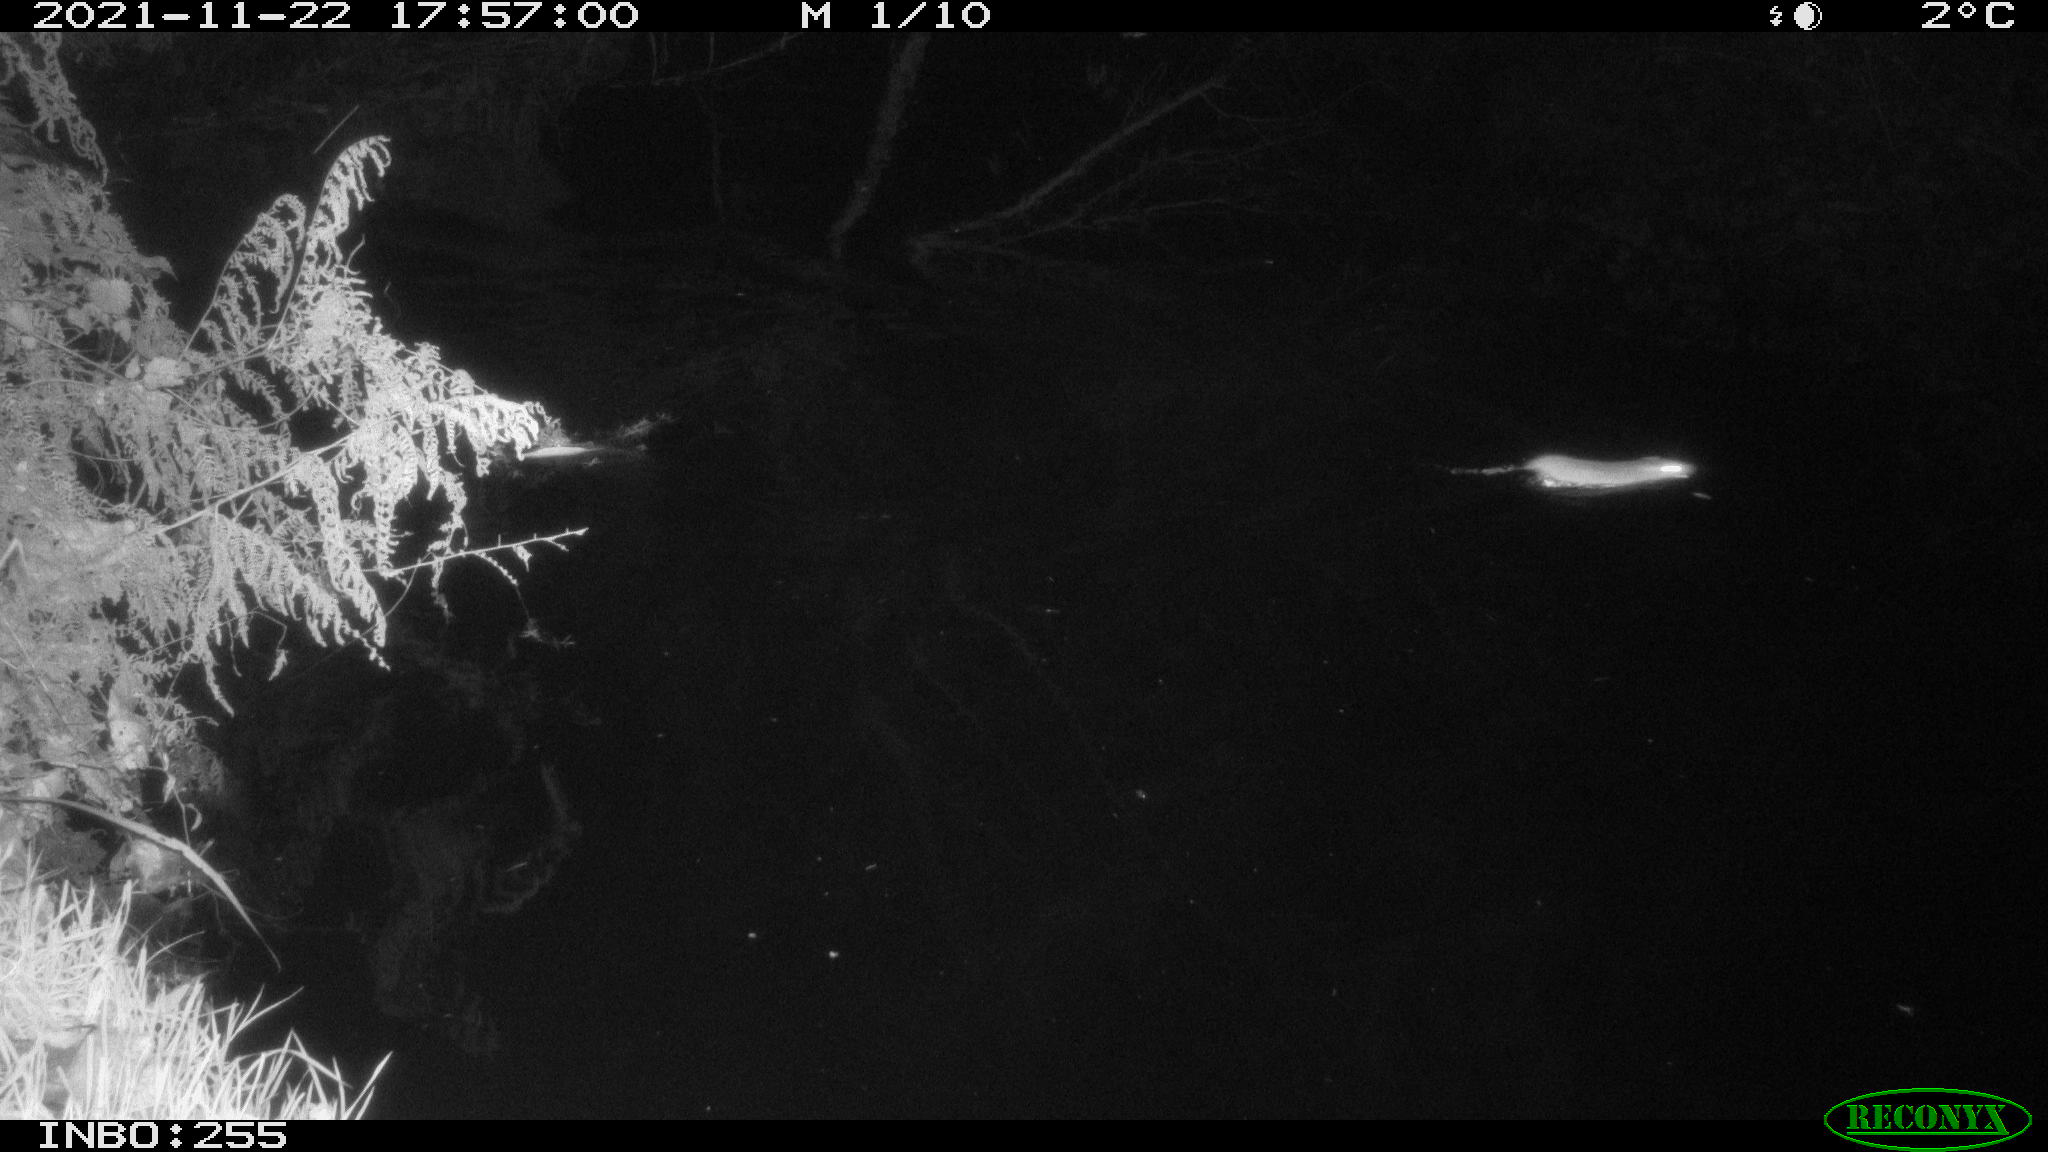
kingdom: Animalia
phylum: Chordata
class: Mammalia
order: Rodentia
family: Muridae
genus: Rattus
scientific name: Rattus norvegicus
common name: Brown rat
